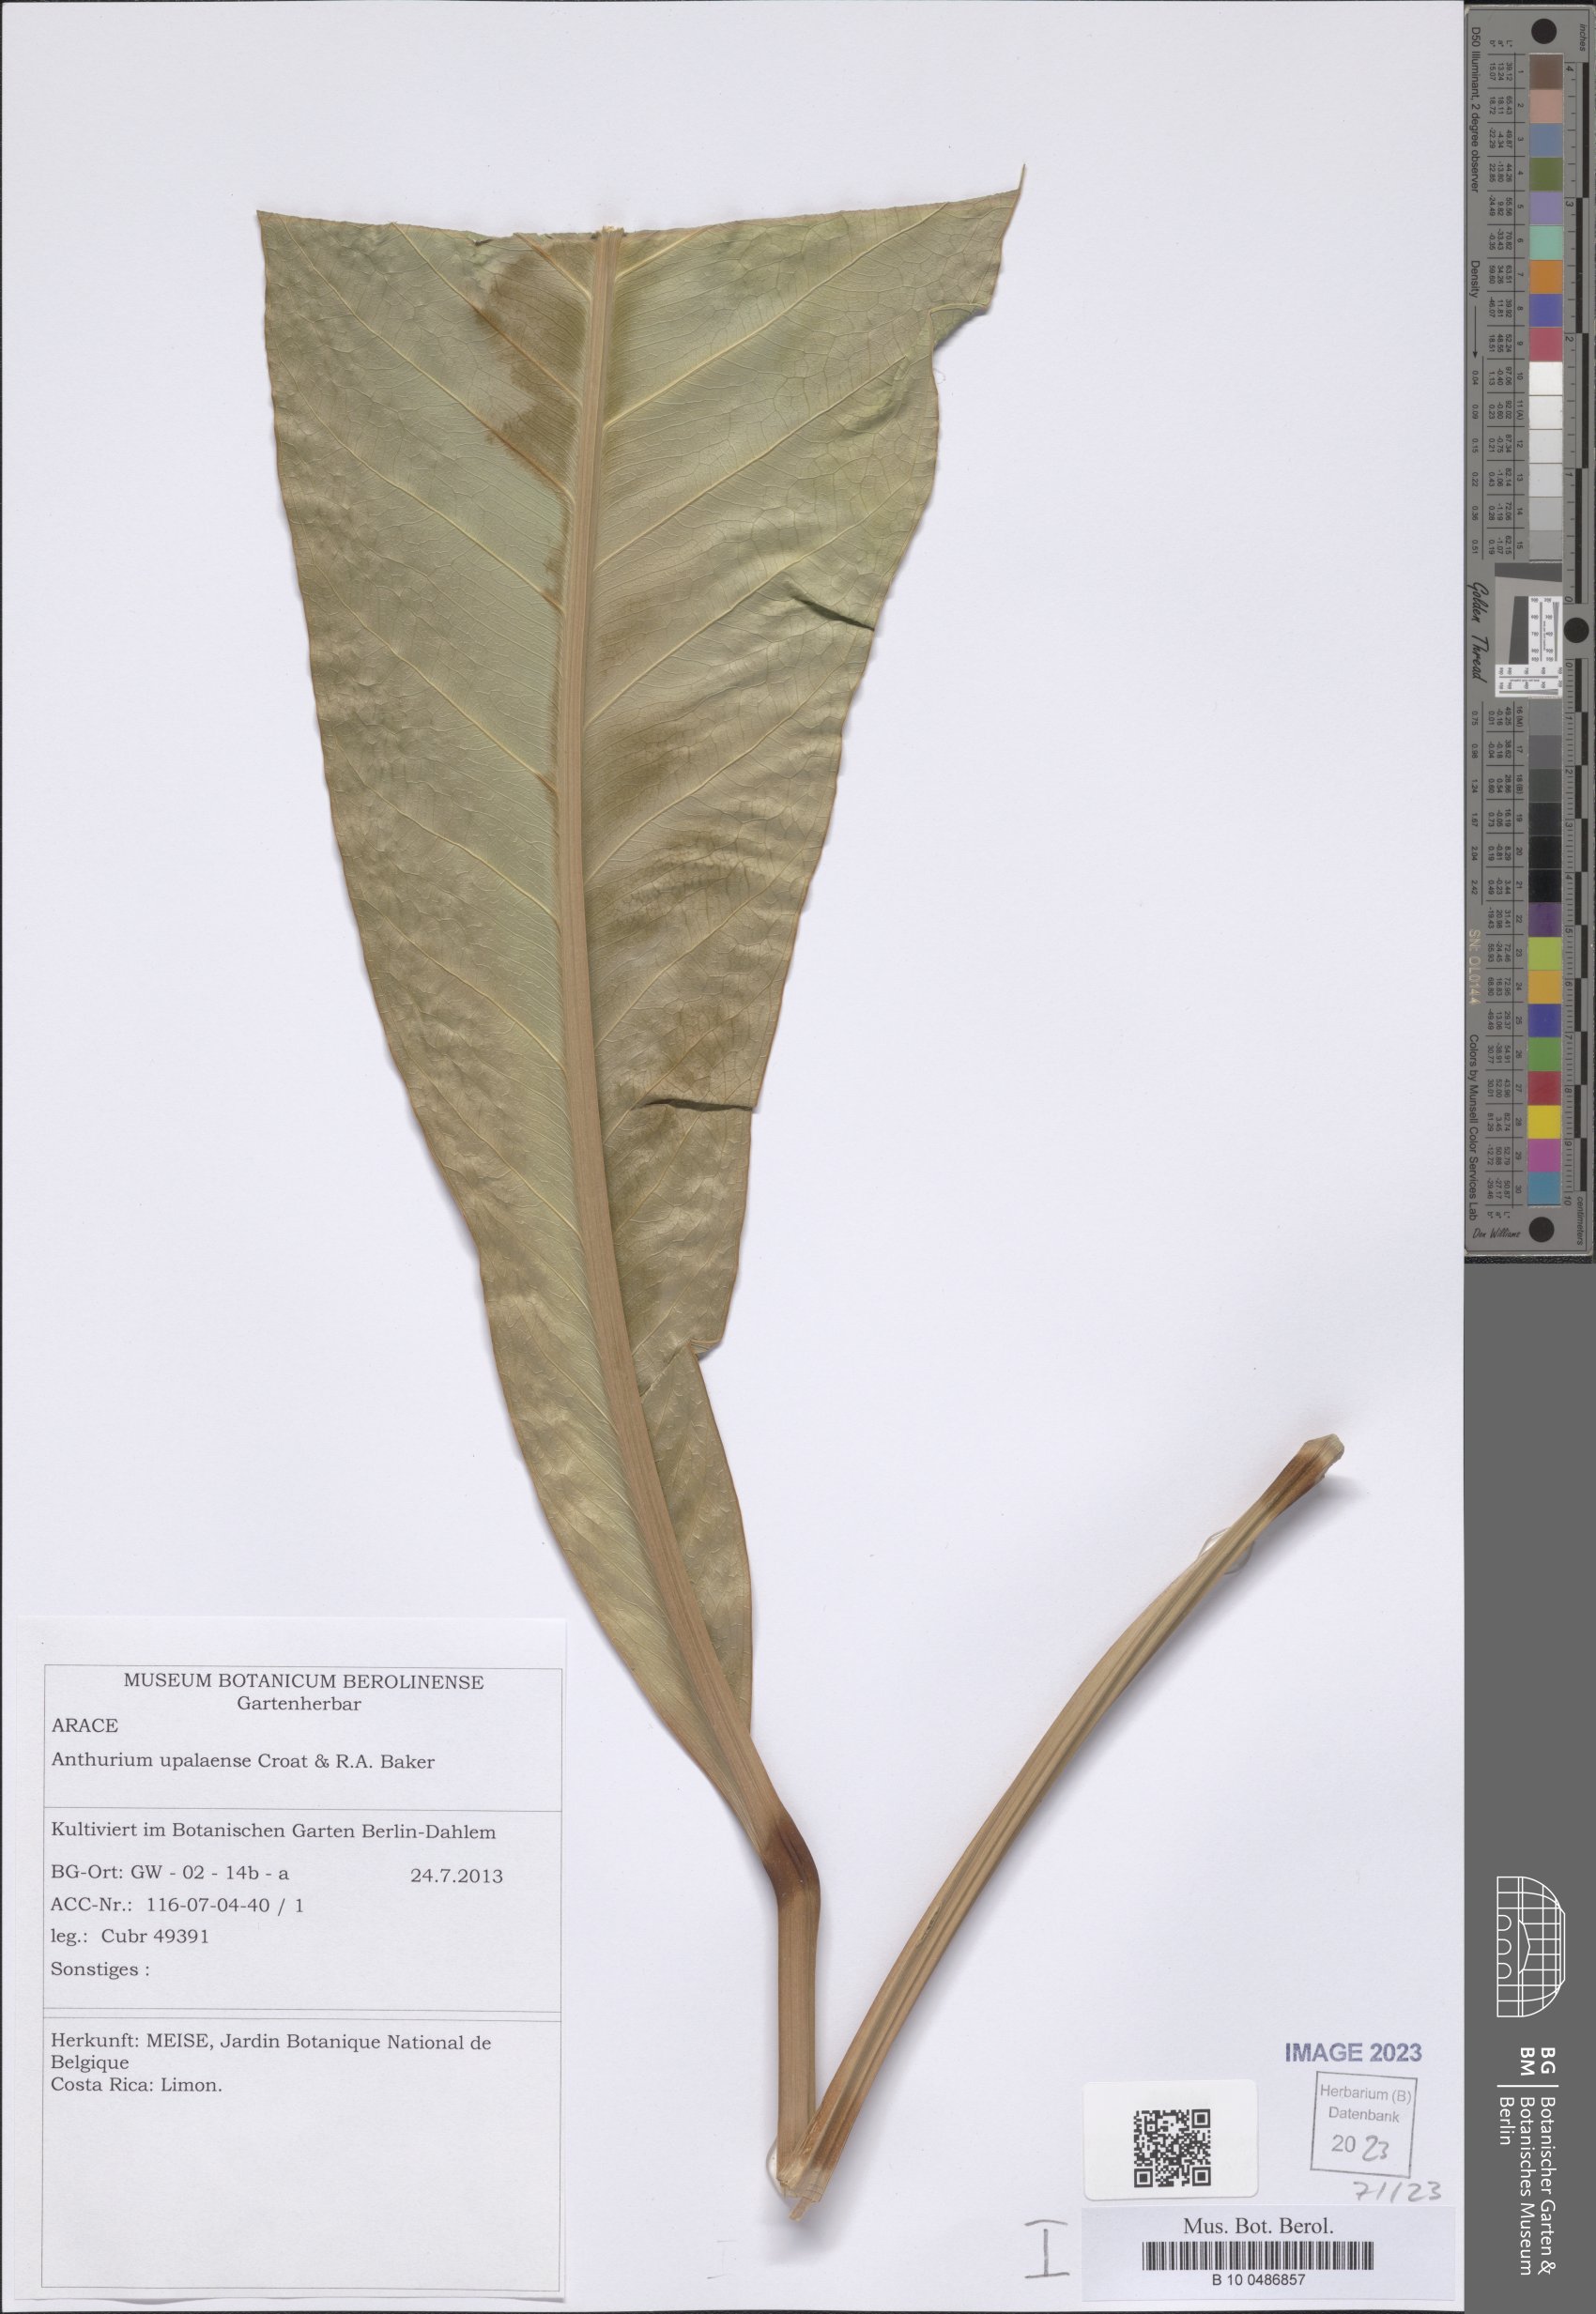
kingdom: Plantae
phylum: Tracheophyta
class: Liliopsida
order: Alismatales
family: Araceae
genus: Anthurium
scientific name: Anthurium upalaense
